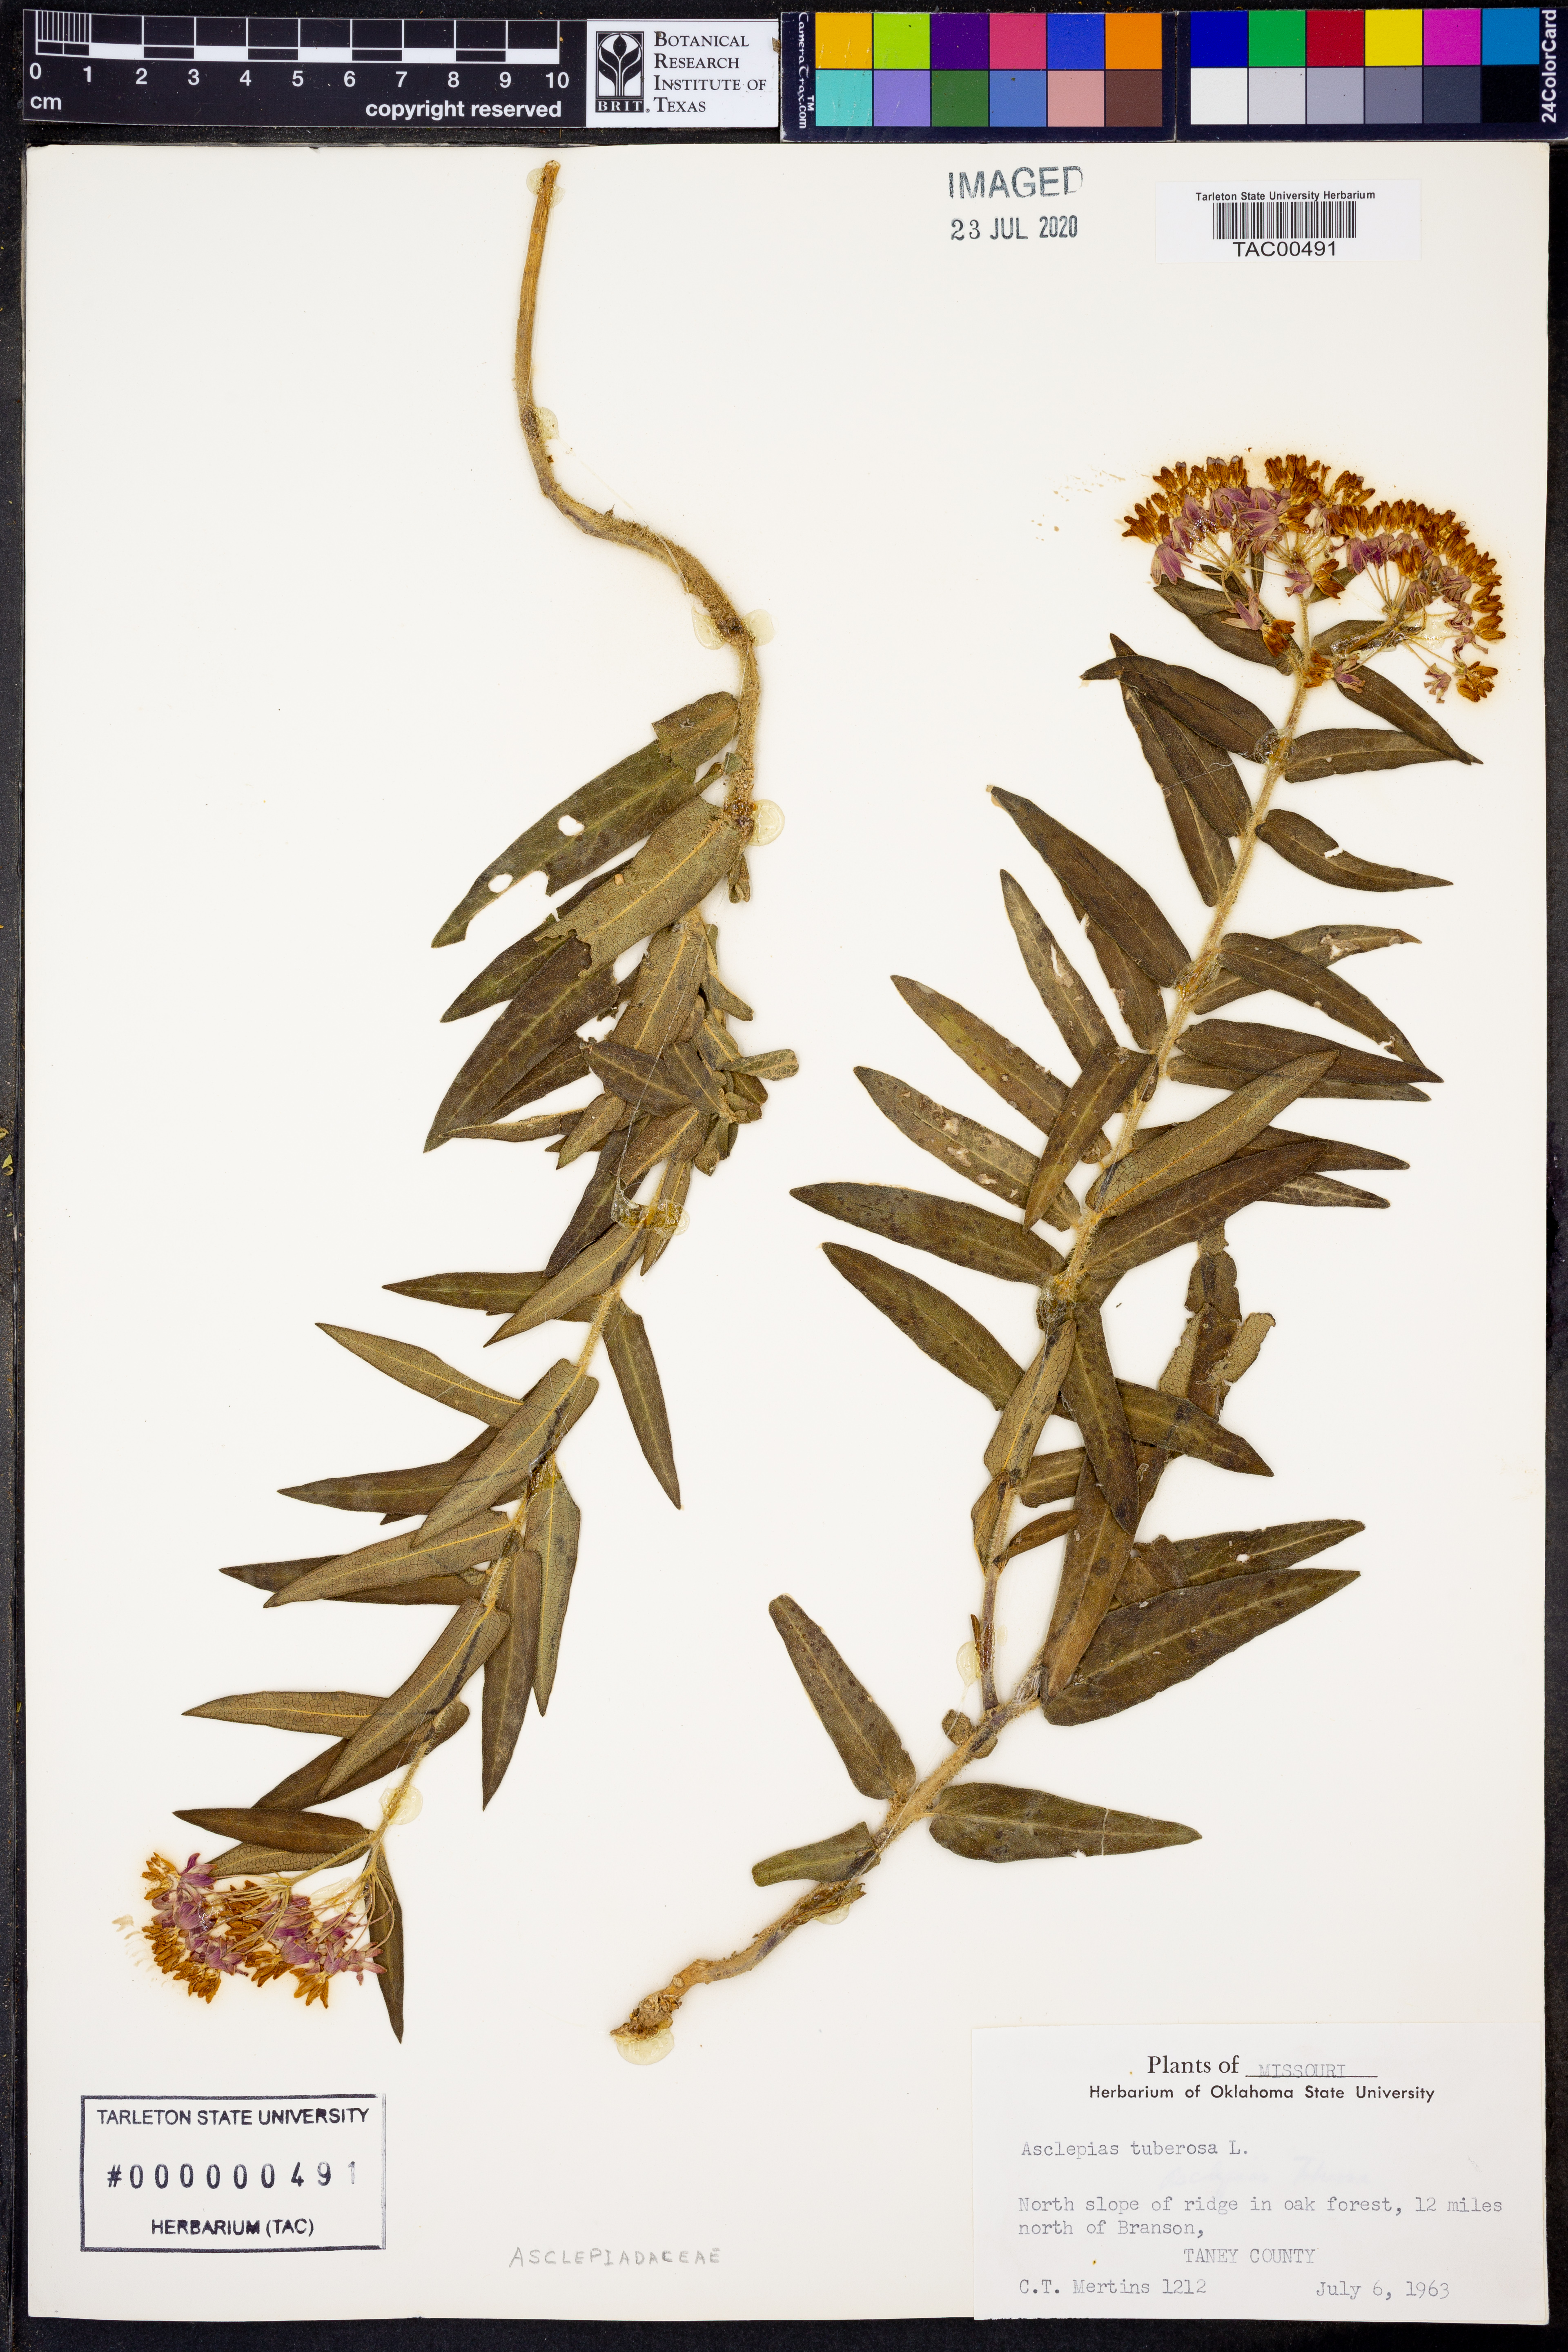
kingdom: Plantae
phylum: Tracheophyta
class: Magnoliopsida
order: Gentianales
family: Apocynaceae
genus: Asclepias
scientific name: Asclepias tuberosa
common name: Butterfly milkweed
